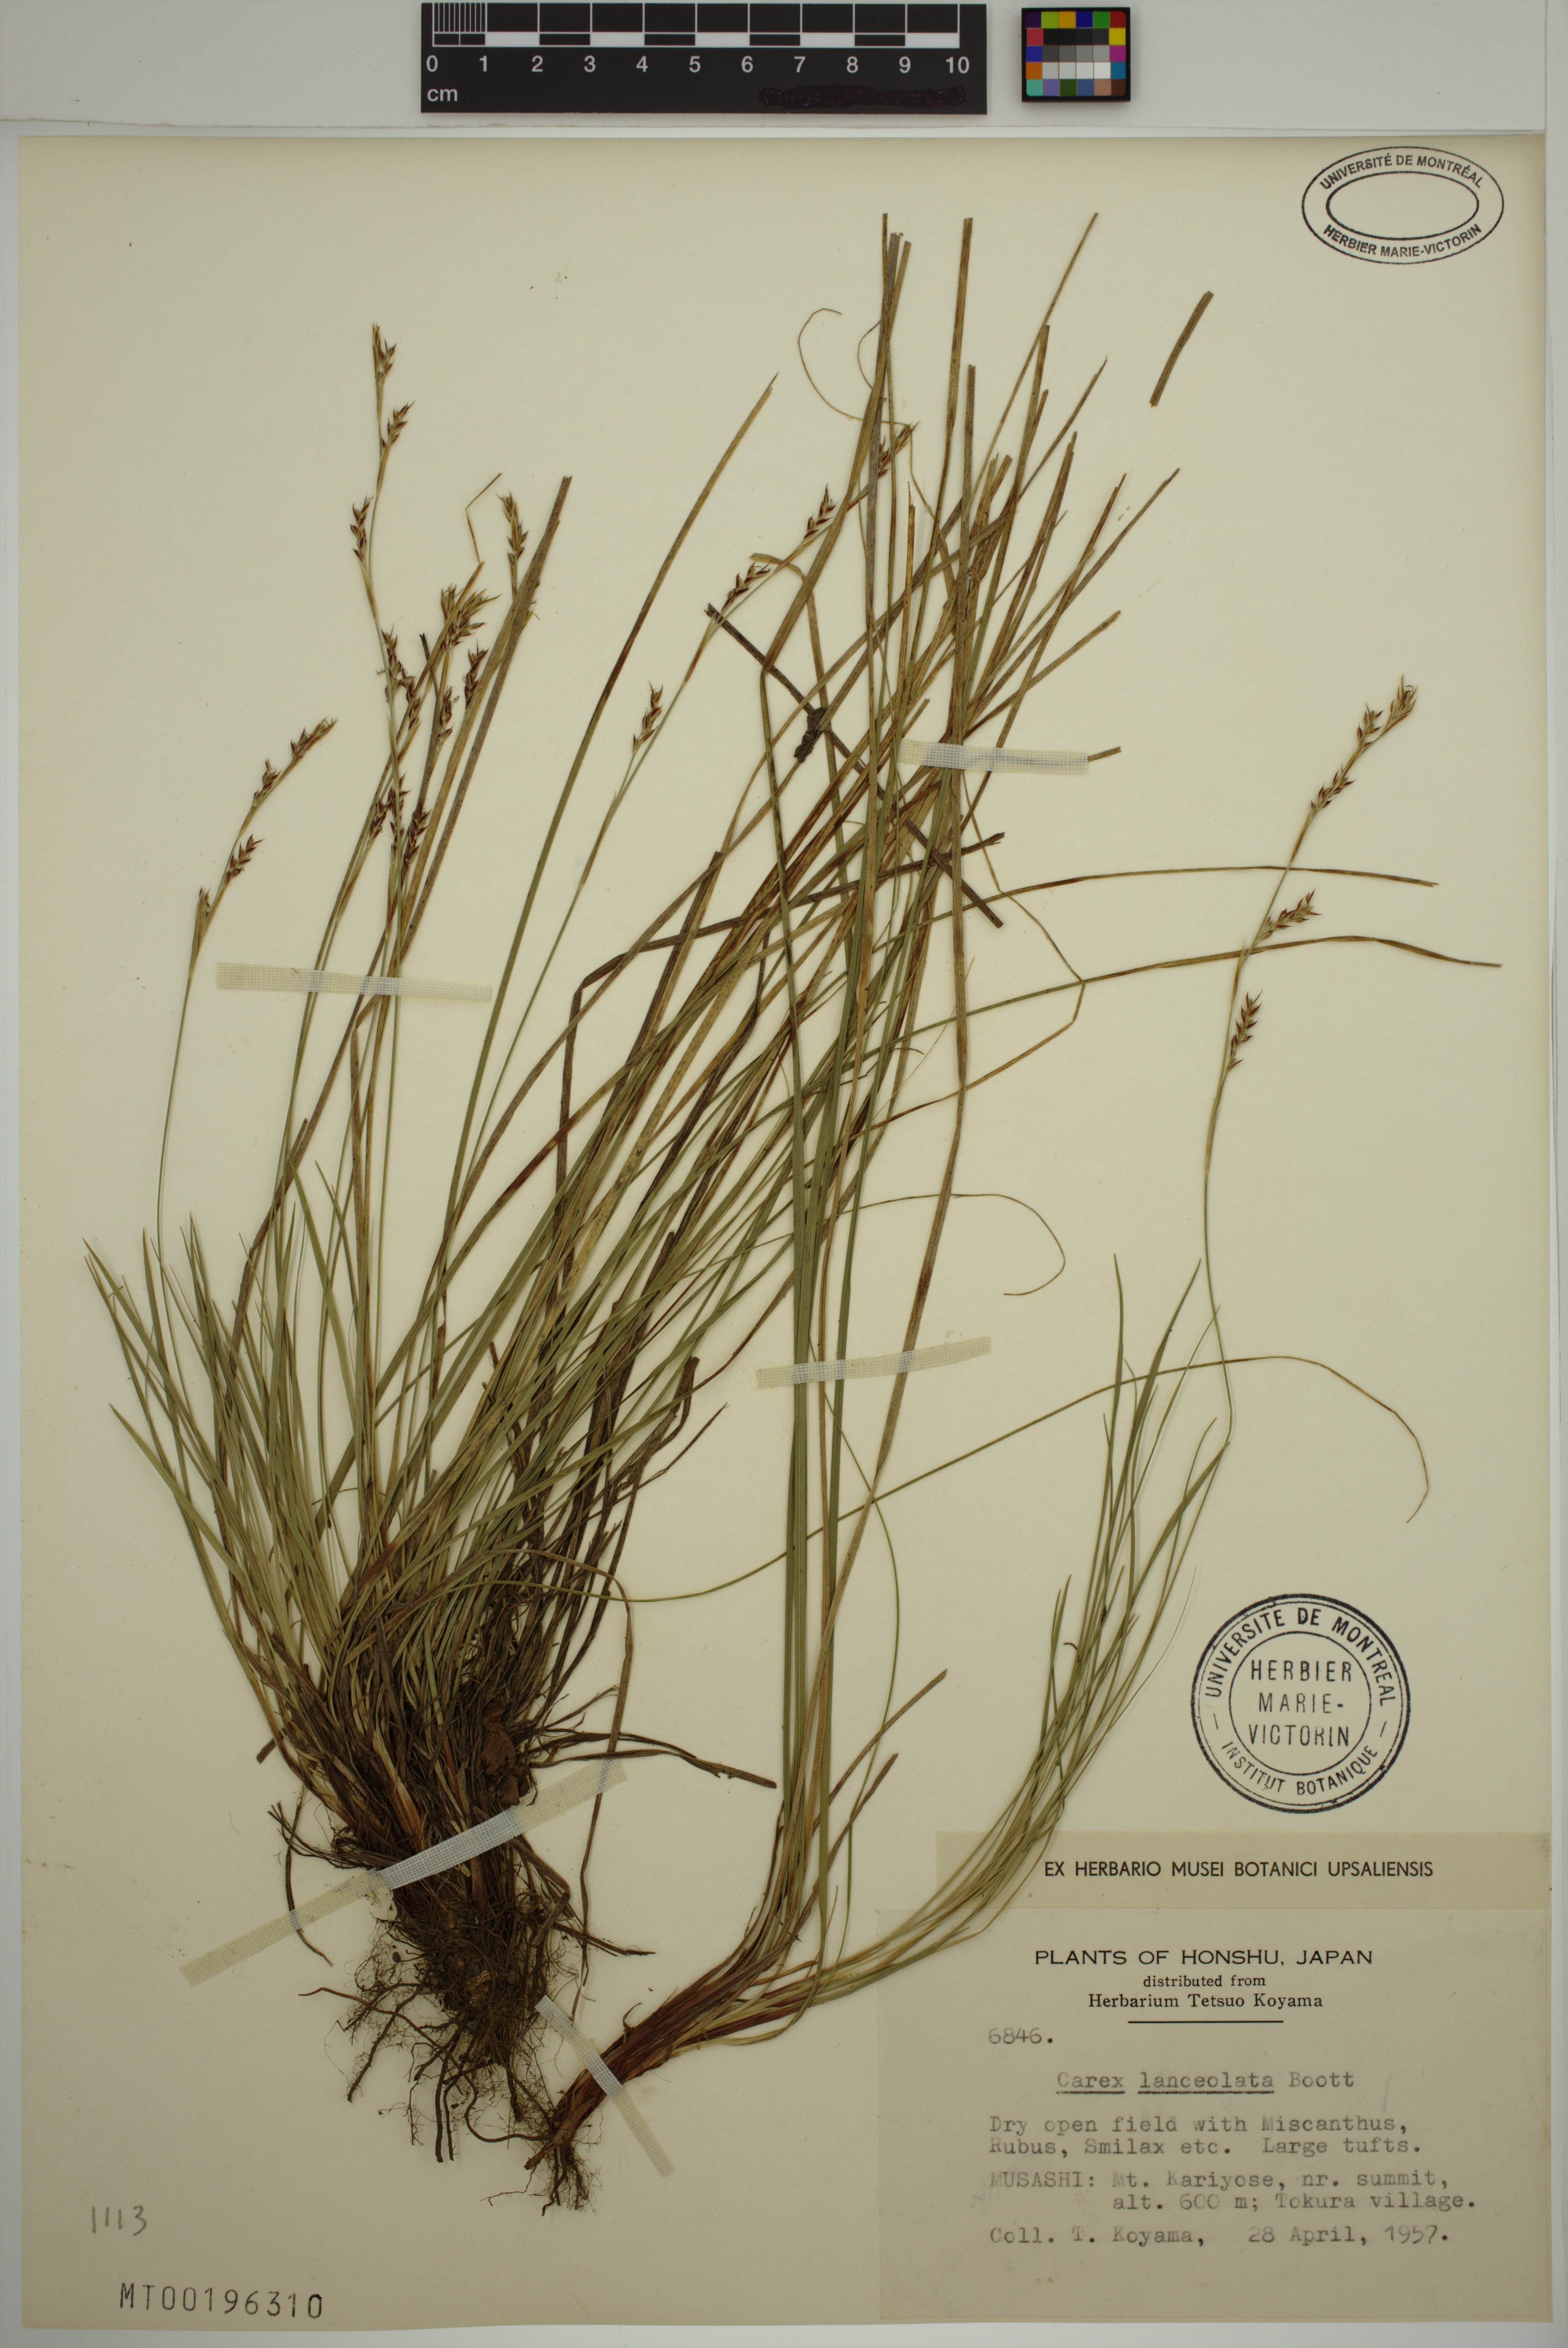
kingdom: Plantae
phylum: Tracheophyta
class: Liliopsida
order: Poales
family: Cyperaceae
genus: Carex
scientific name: Carex lanceolata
